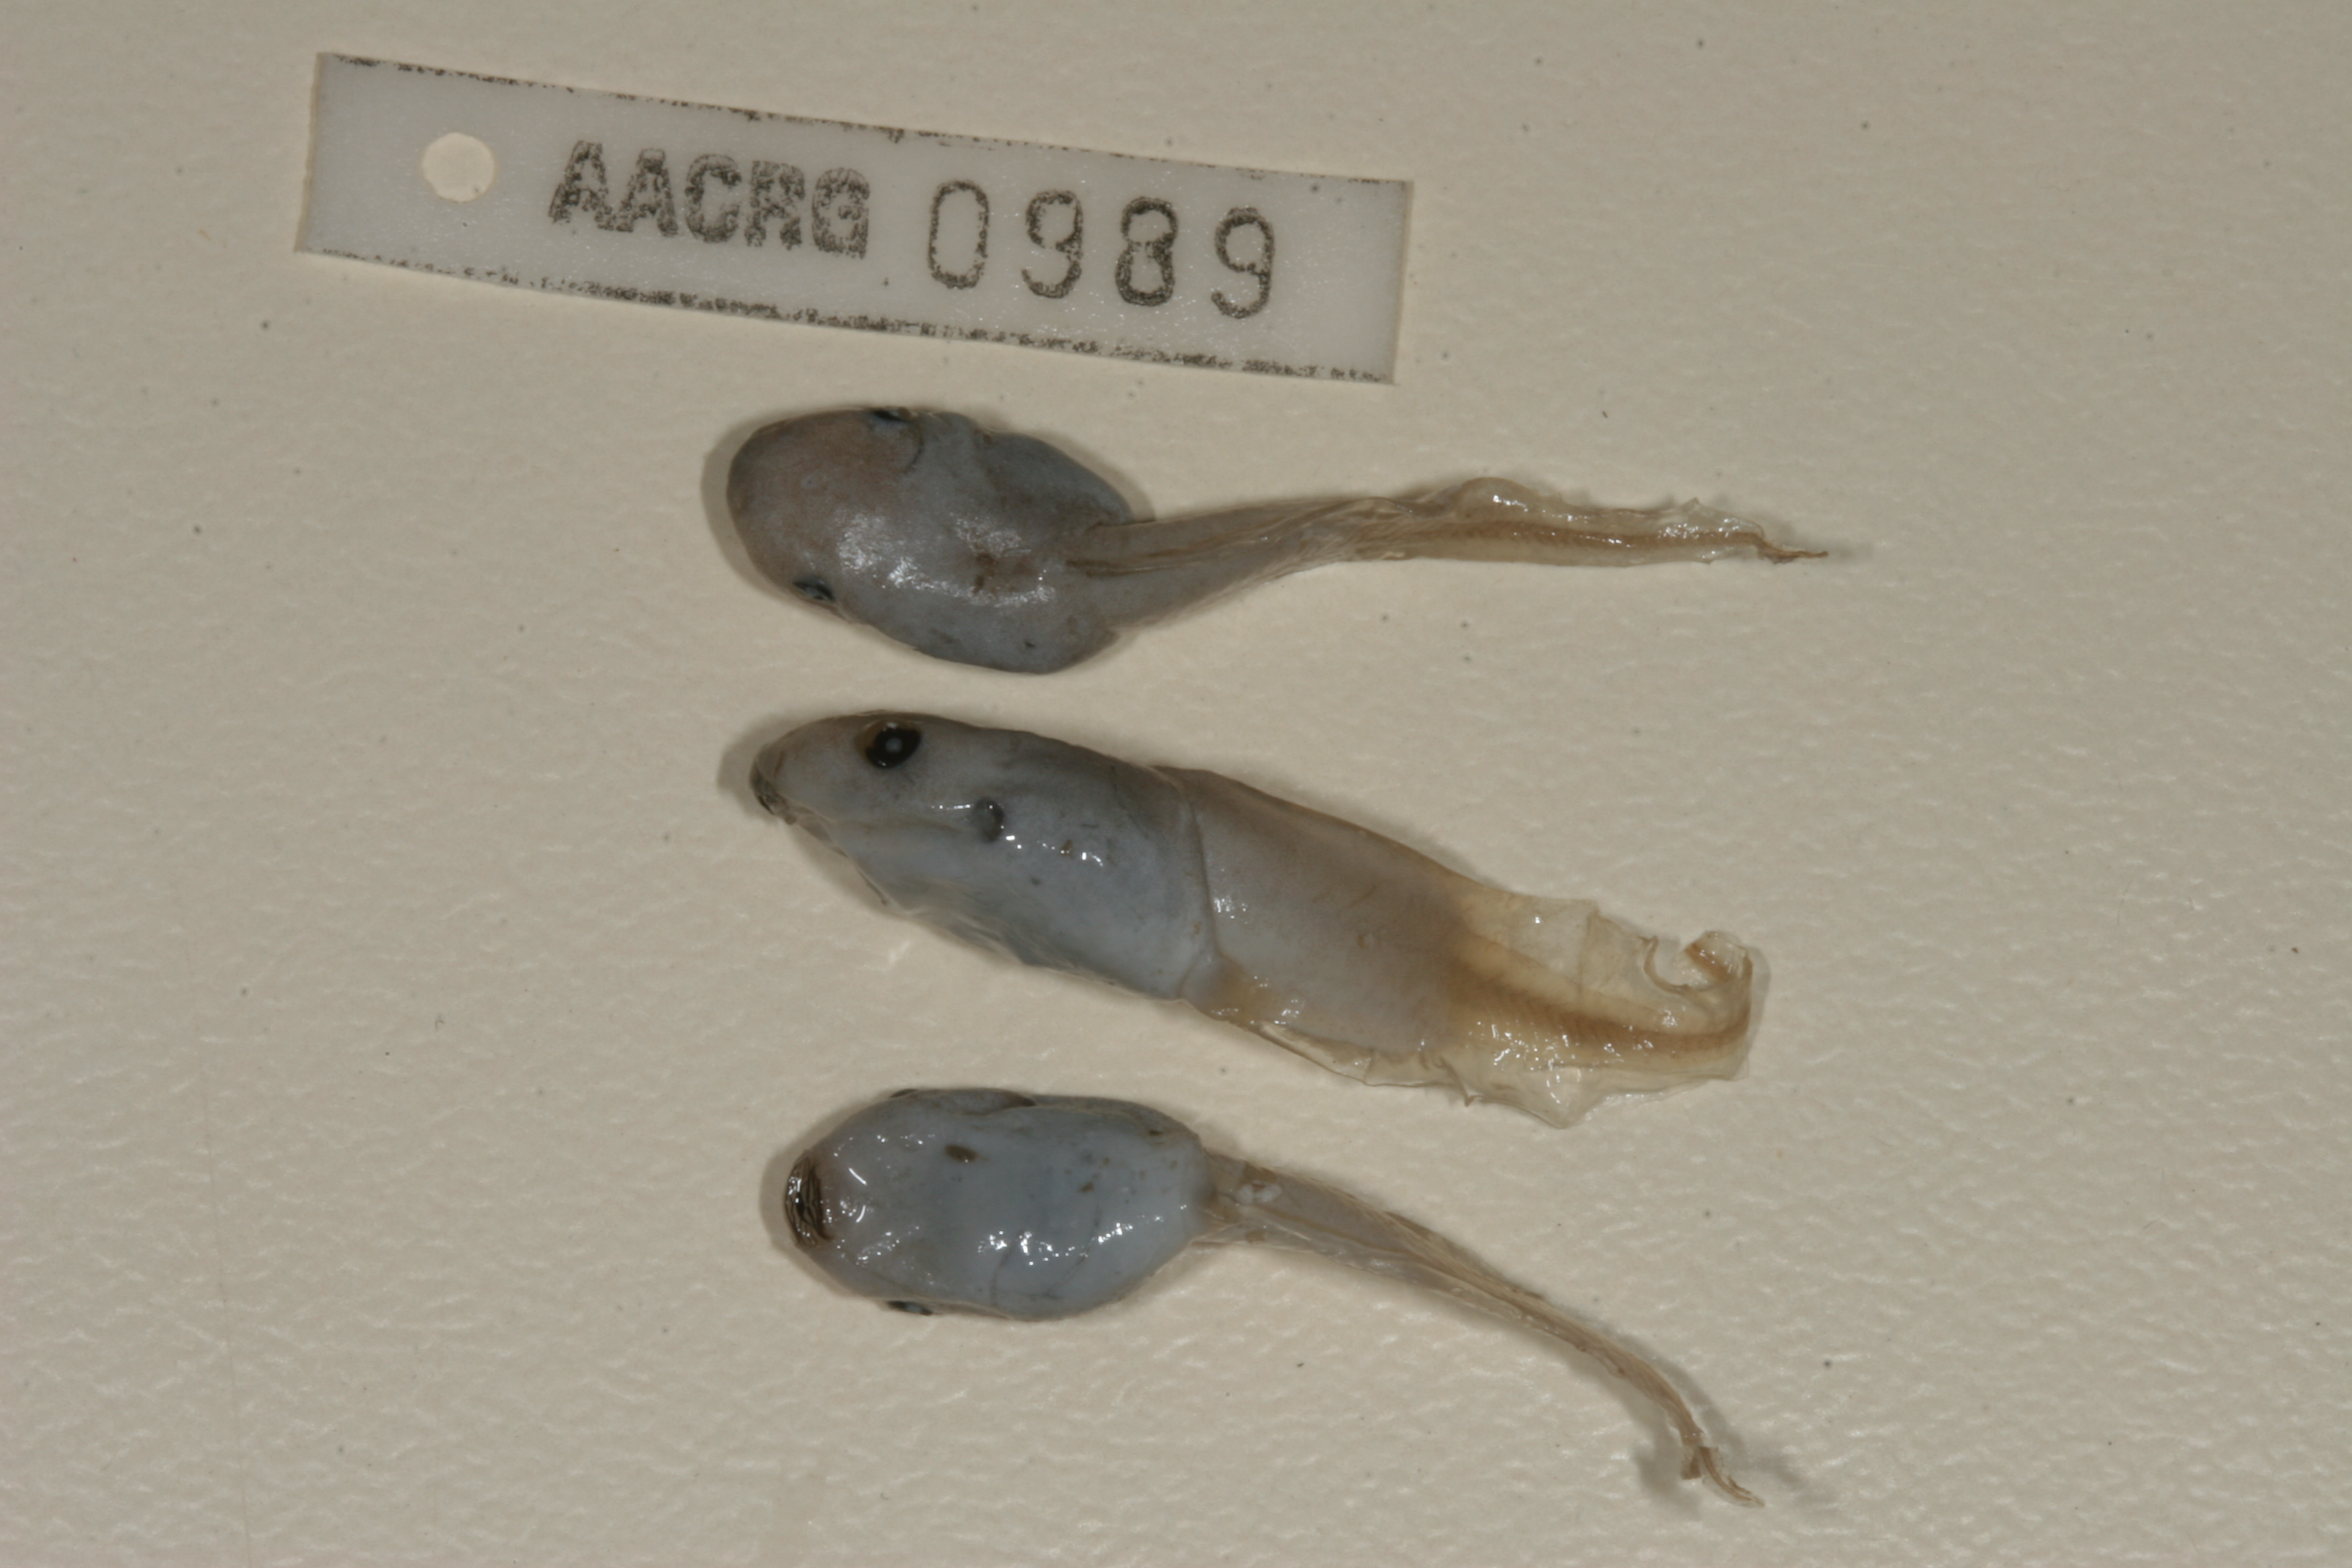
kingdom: Animalia
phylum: Chordata
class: Amphibia
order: Anura
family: Hemisotidae
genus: Hemisus
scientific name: Hemisus marmoratus
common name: Mottled shovel-nosed frog
